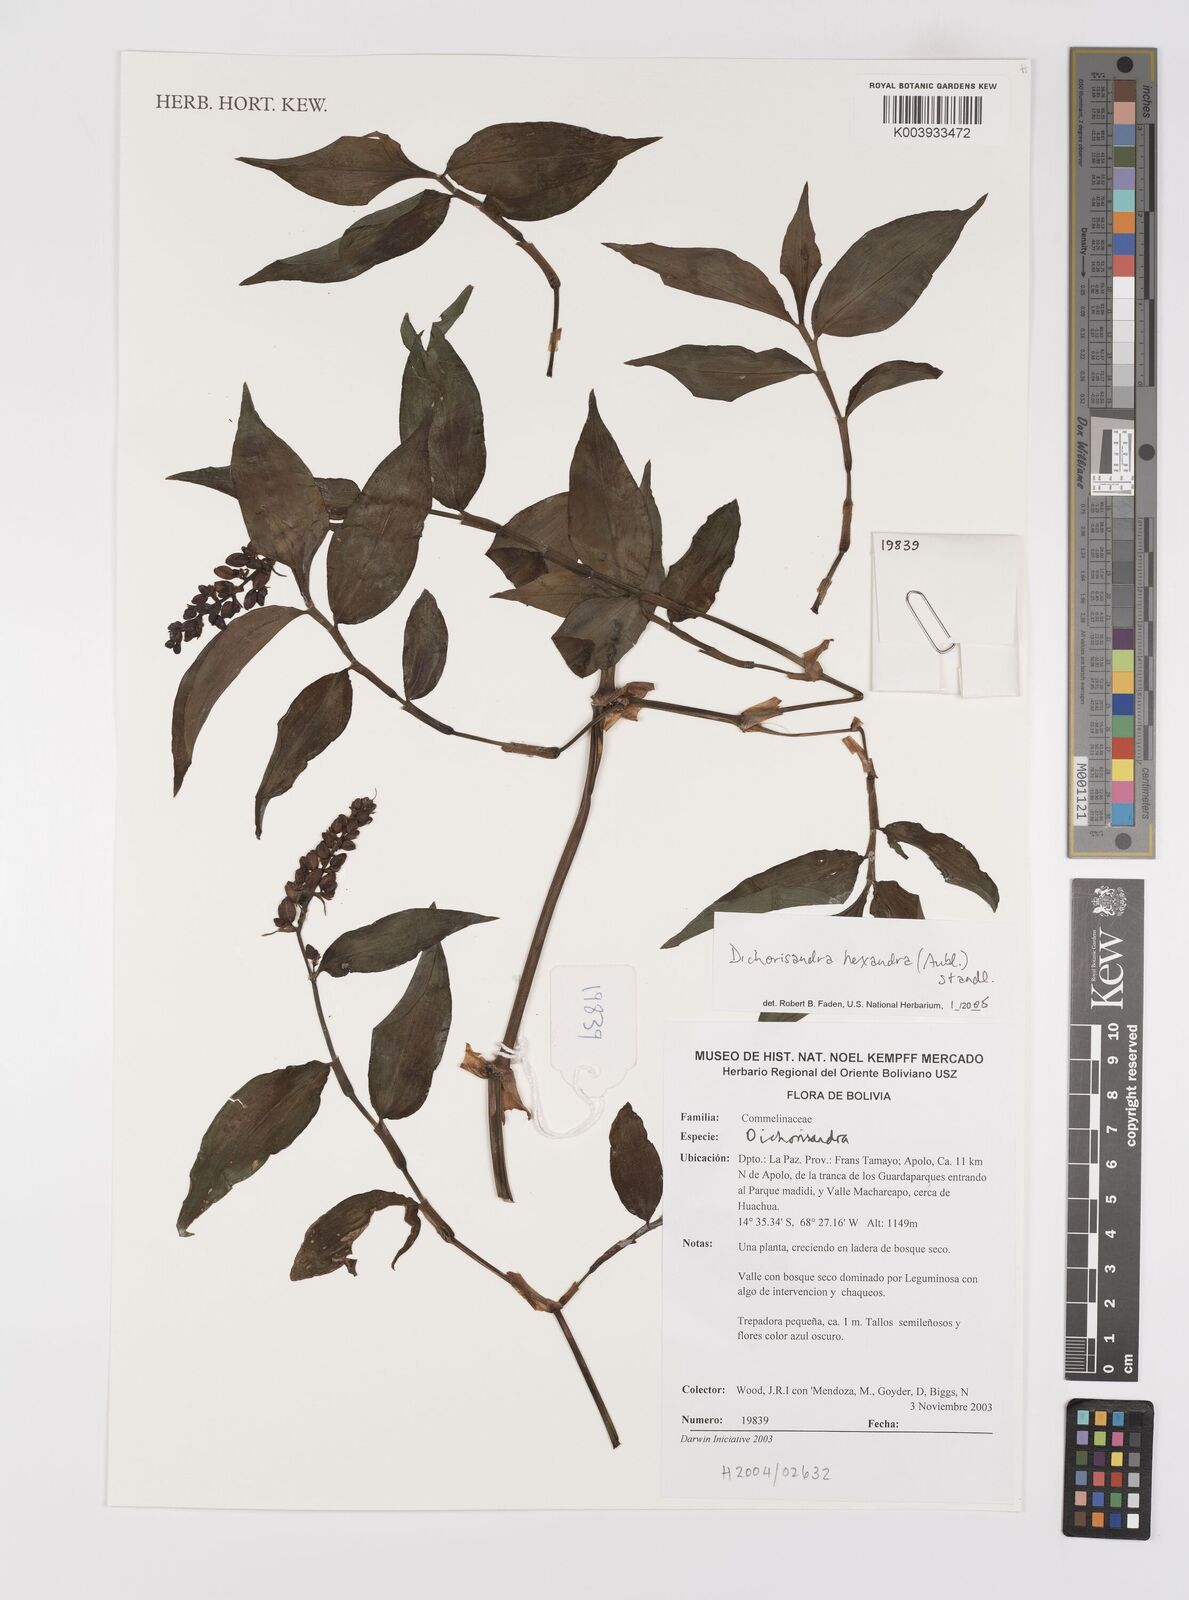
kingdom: Plantae
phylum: Tracheophyta
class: Liliopsida
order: Commelinales
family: Commelinaceae
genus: Dichorisandra
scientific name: Dichorisandra hexandra
